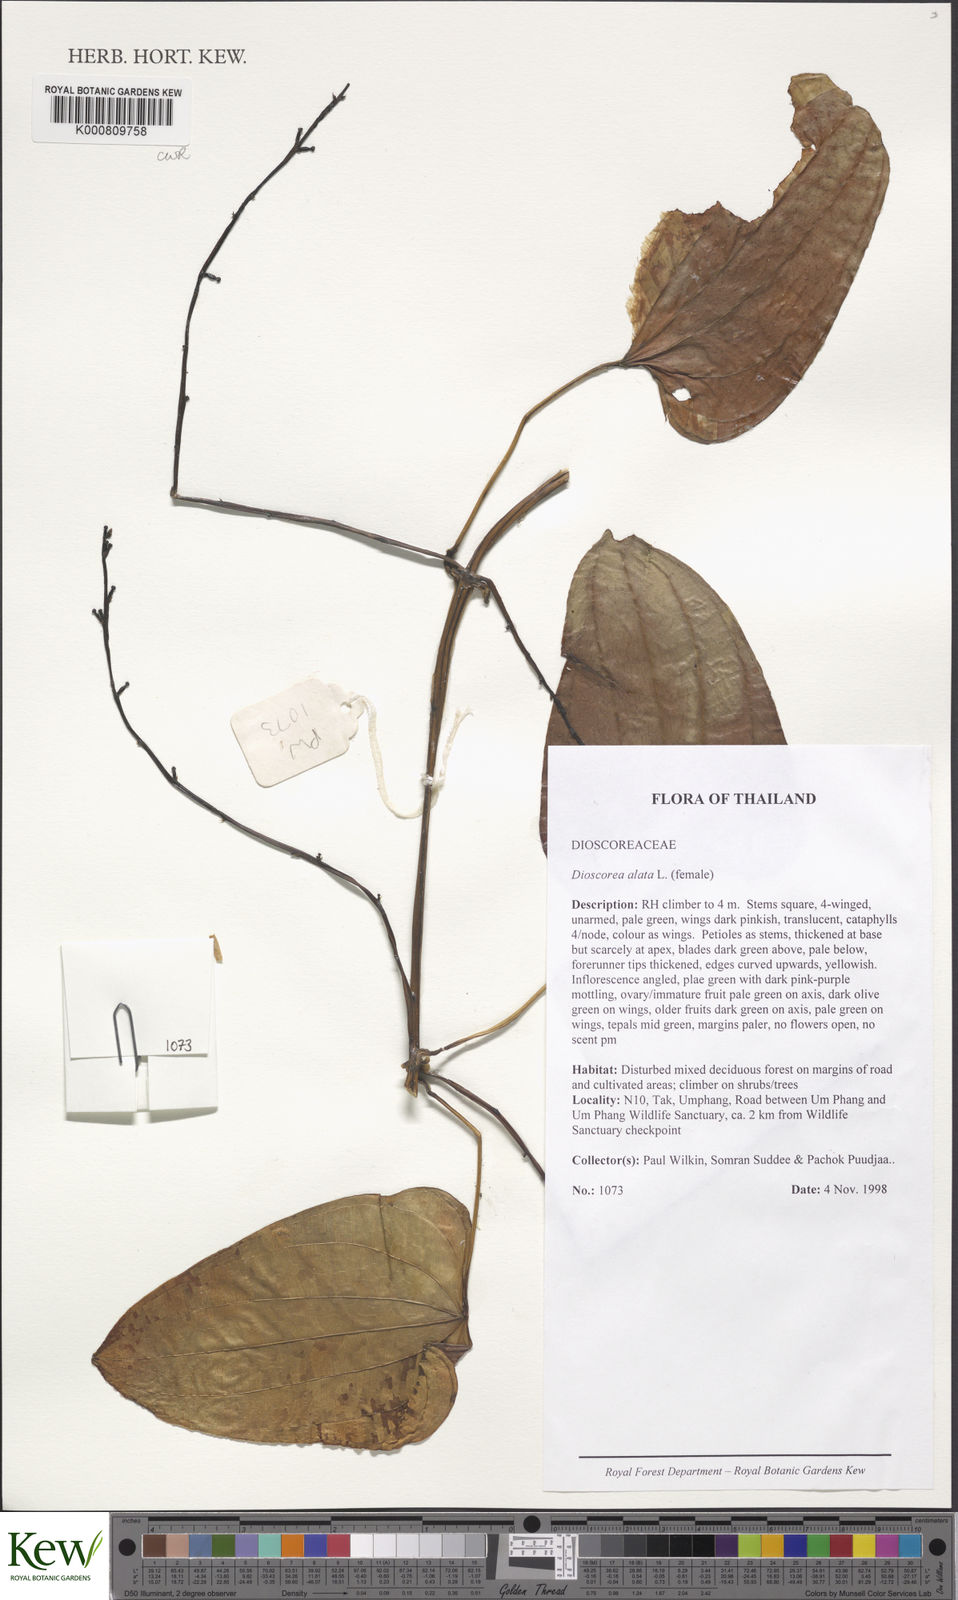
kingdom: Plantae
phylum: Tracheophyta
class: Liliopsida
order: Dioscoreales
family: Dioscoreaceae
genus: Dioscorea
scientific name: Dioscorea alata
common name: Water yam
